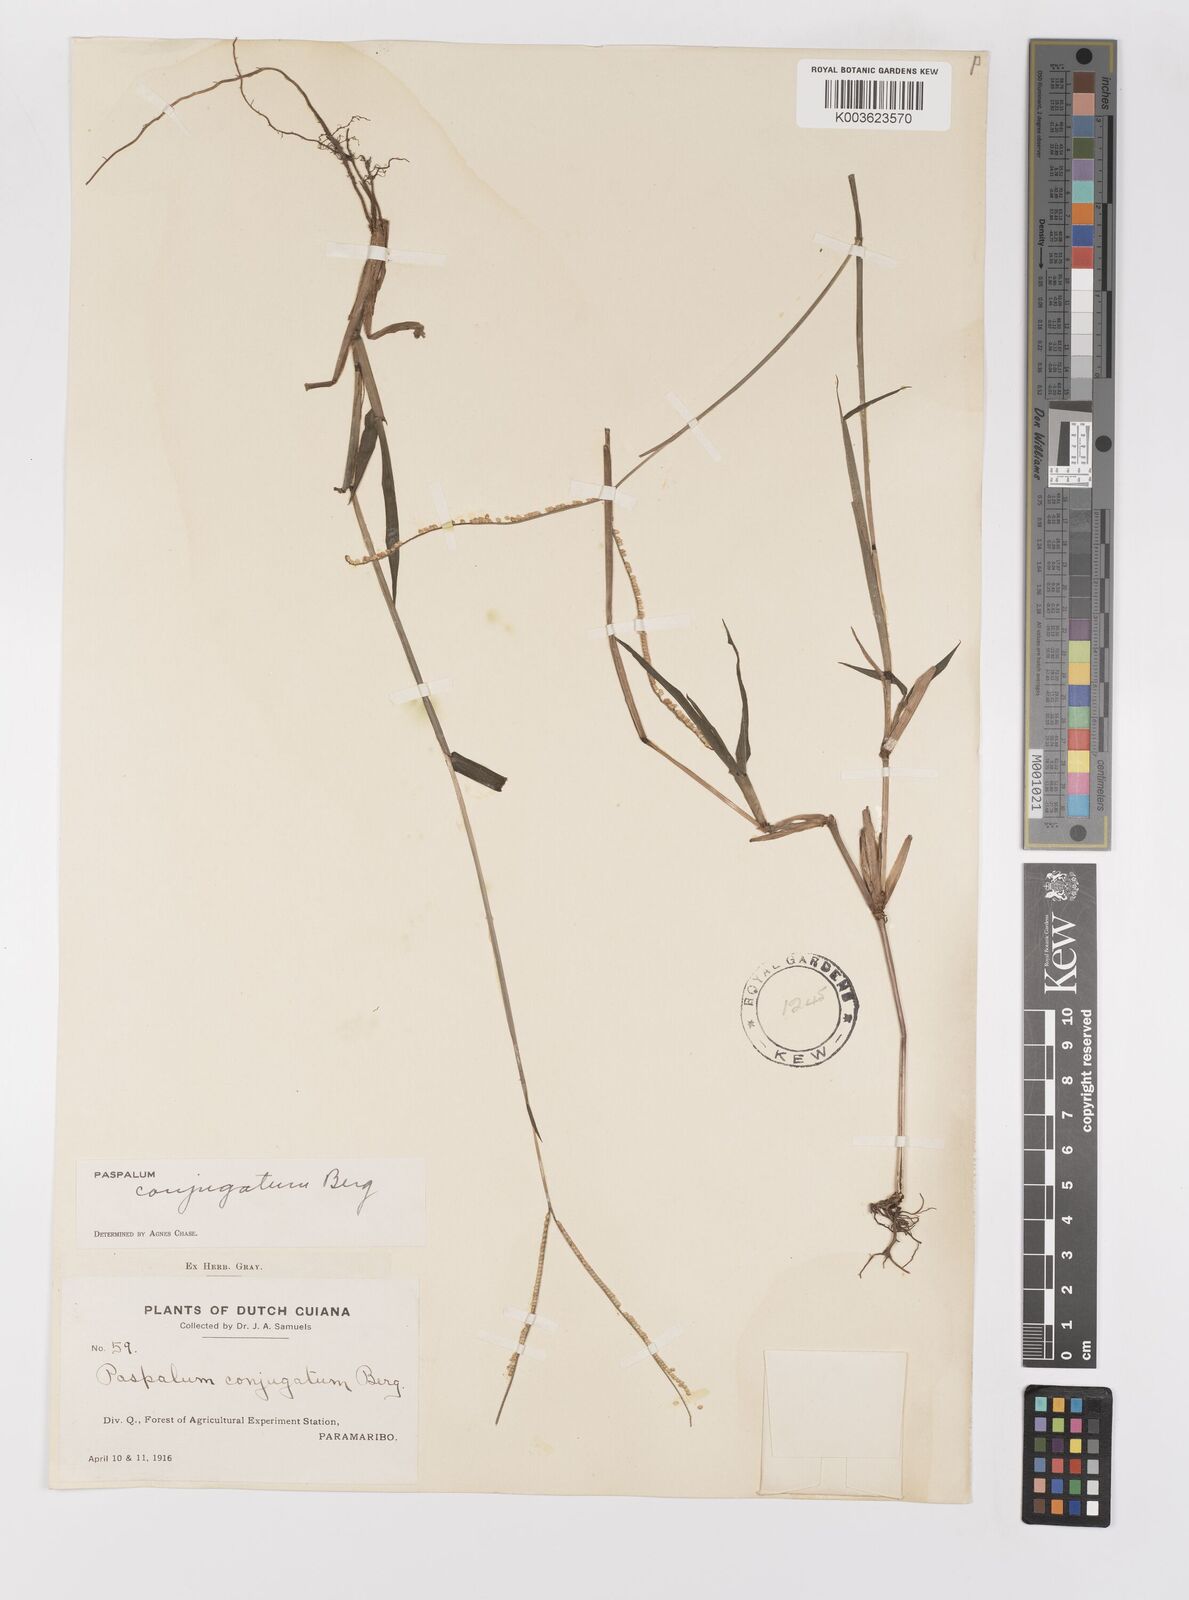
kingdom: Plantae
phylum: Tracheophyta
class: Liliopsida
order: Poales
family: Poaceae
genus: Paspalum
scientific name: Paspalum conjugatum
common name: Hilograss
